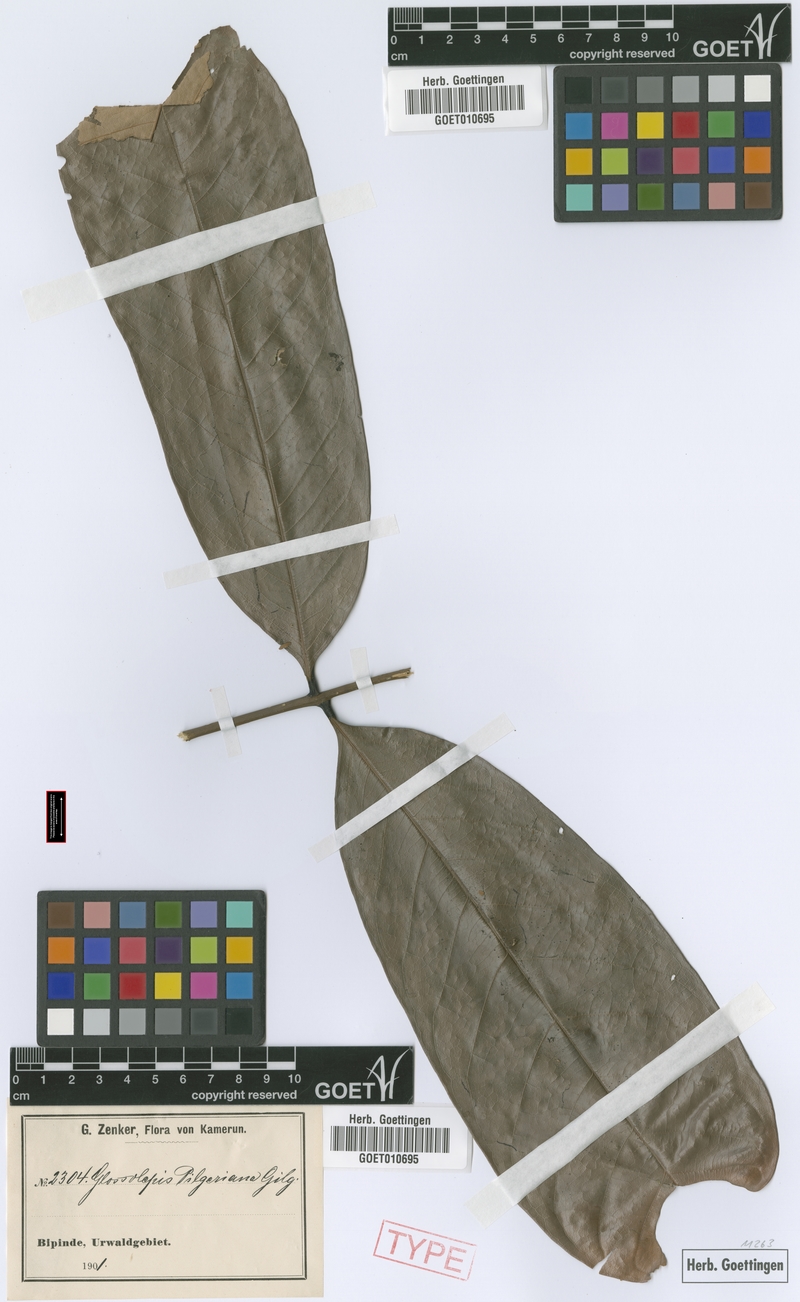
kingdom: Plantae
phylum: Tracheophyta
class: Magnoliopsida
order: Sapindales
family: Sapindaceae
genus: Chytranthus
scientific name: Chytranthus talbotii
